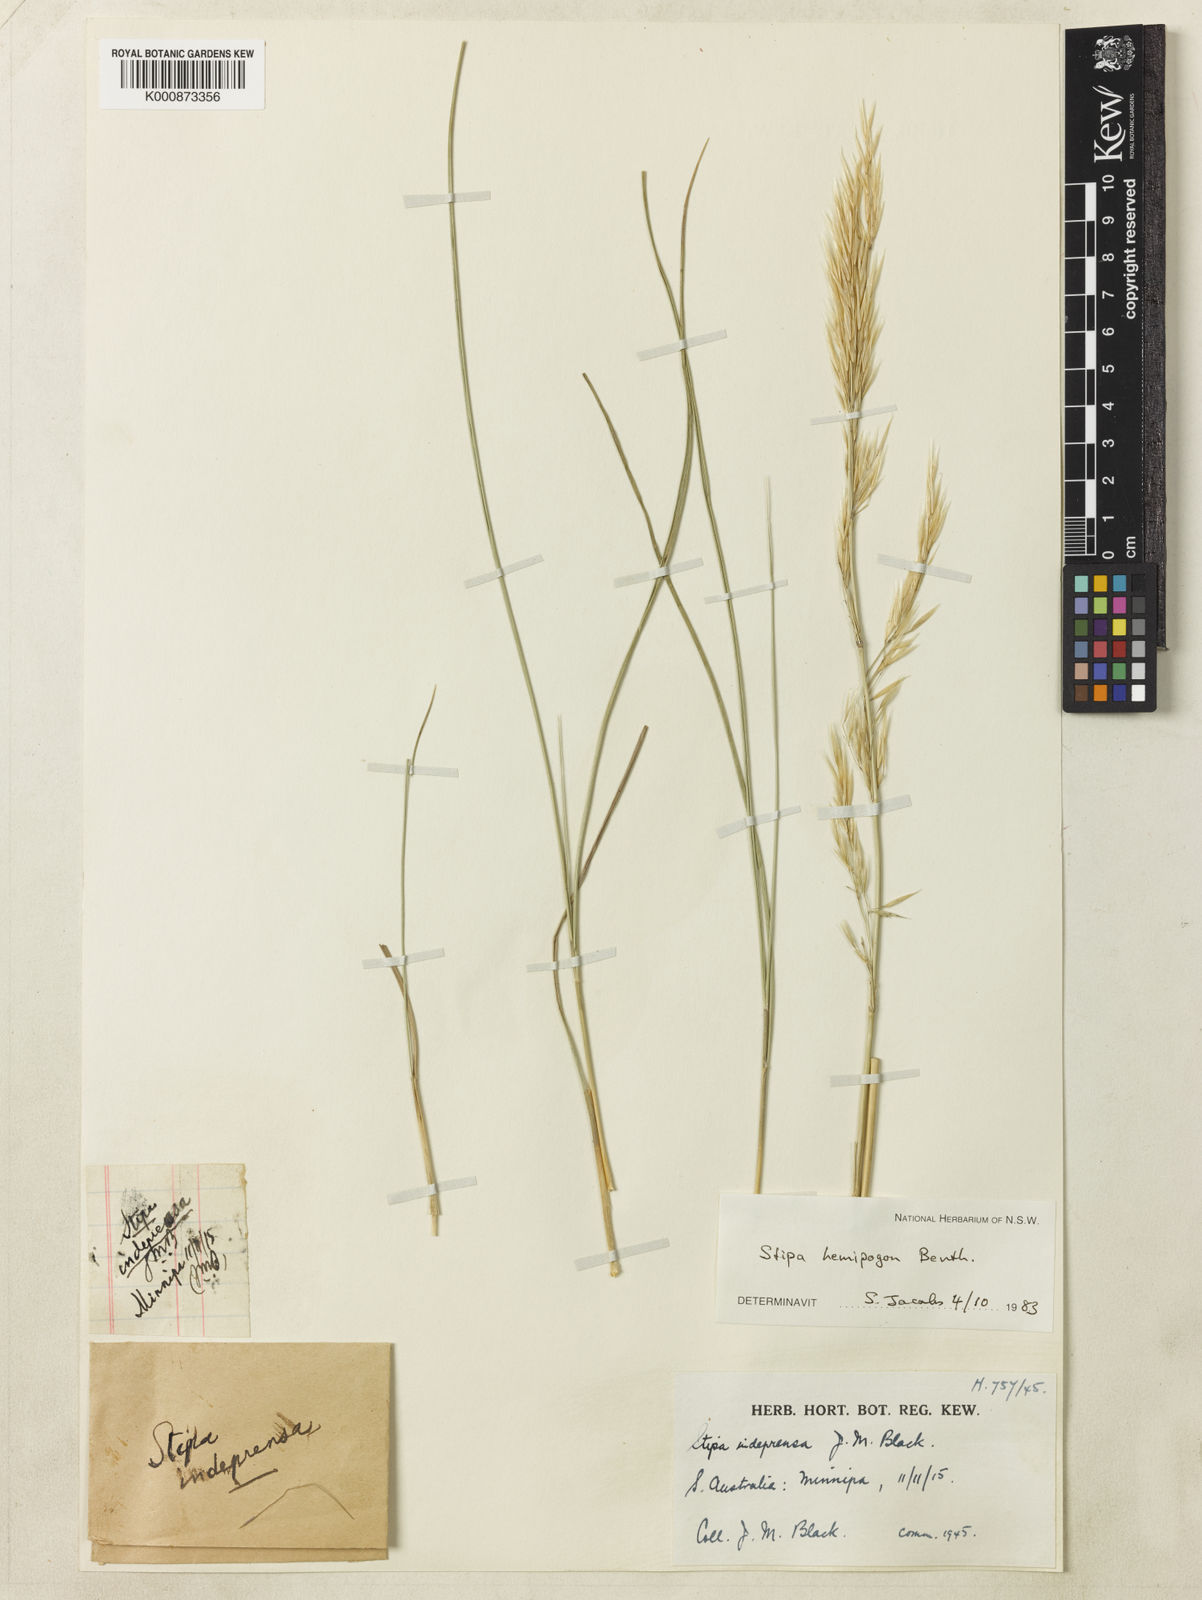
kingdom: Plantae
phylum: Tracheophyta
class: Liliopsida
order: Poales
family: Poaceae
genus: Austrostipa
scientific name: Austrostipa hemipogon
